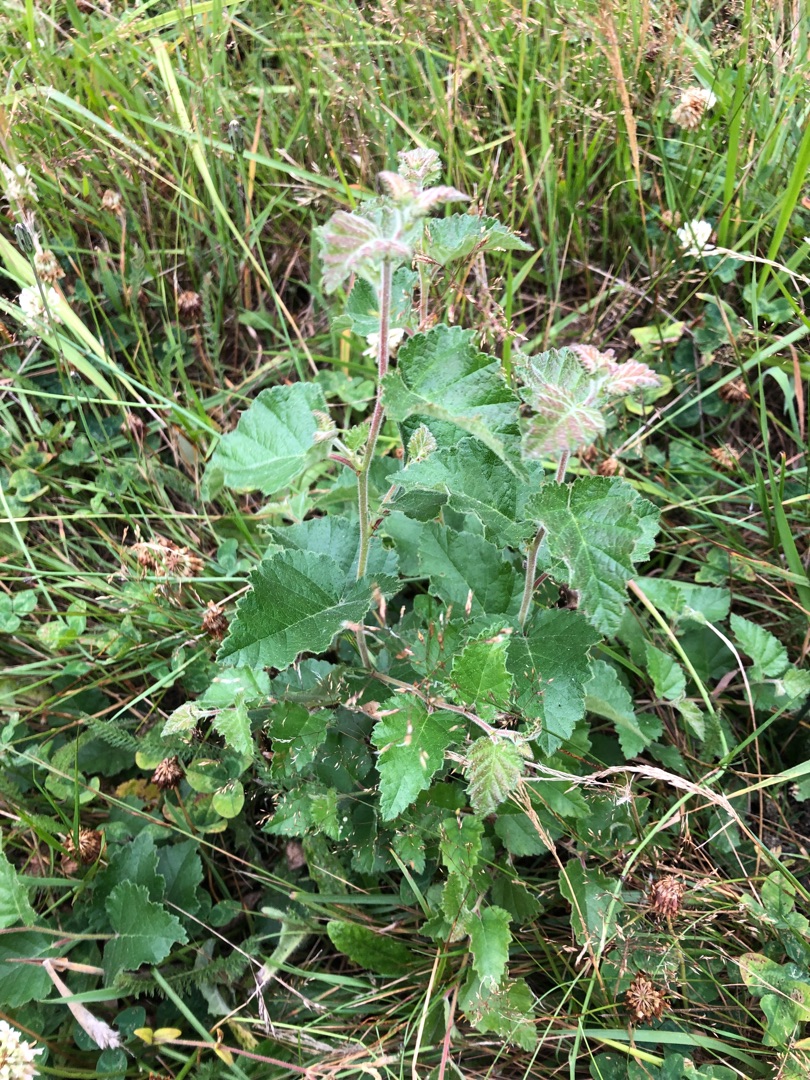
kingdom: Plantae
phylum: Tracheophyta
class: Magnoliopsida
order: Fagales
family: Betulaceae
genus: Betula
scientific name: Betula pubescens
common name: Dun-birk
